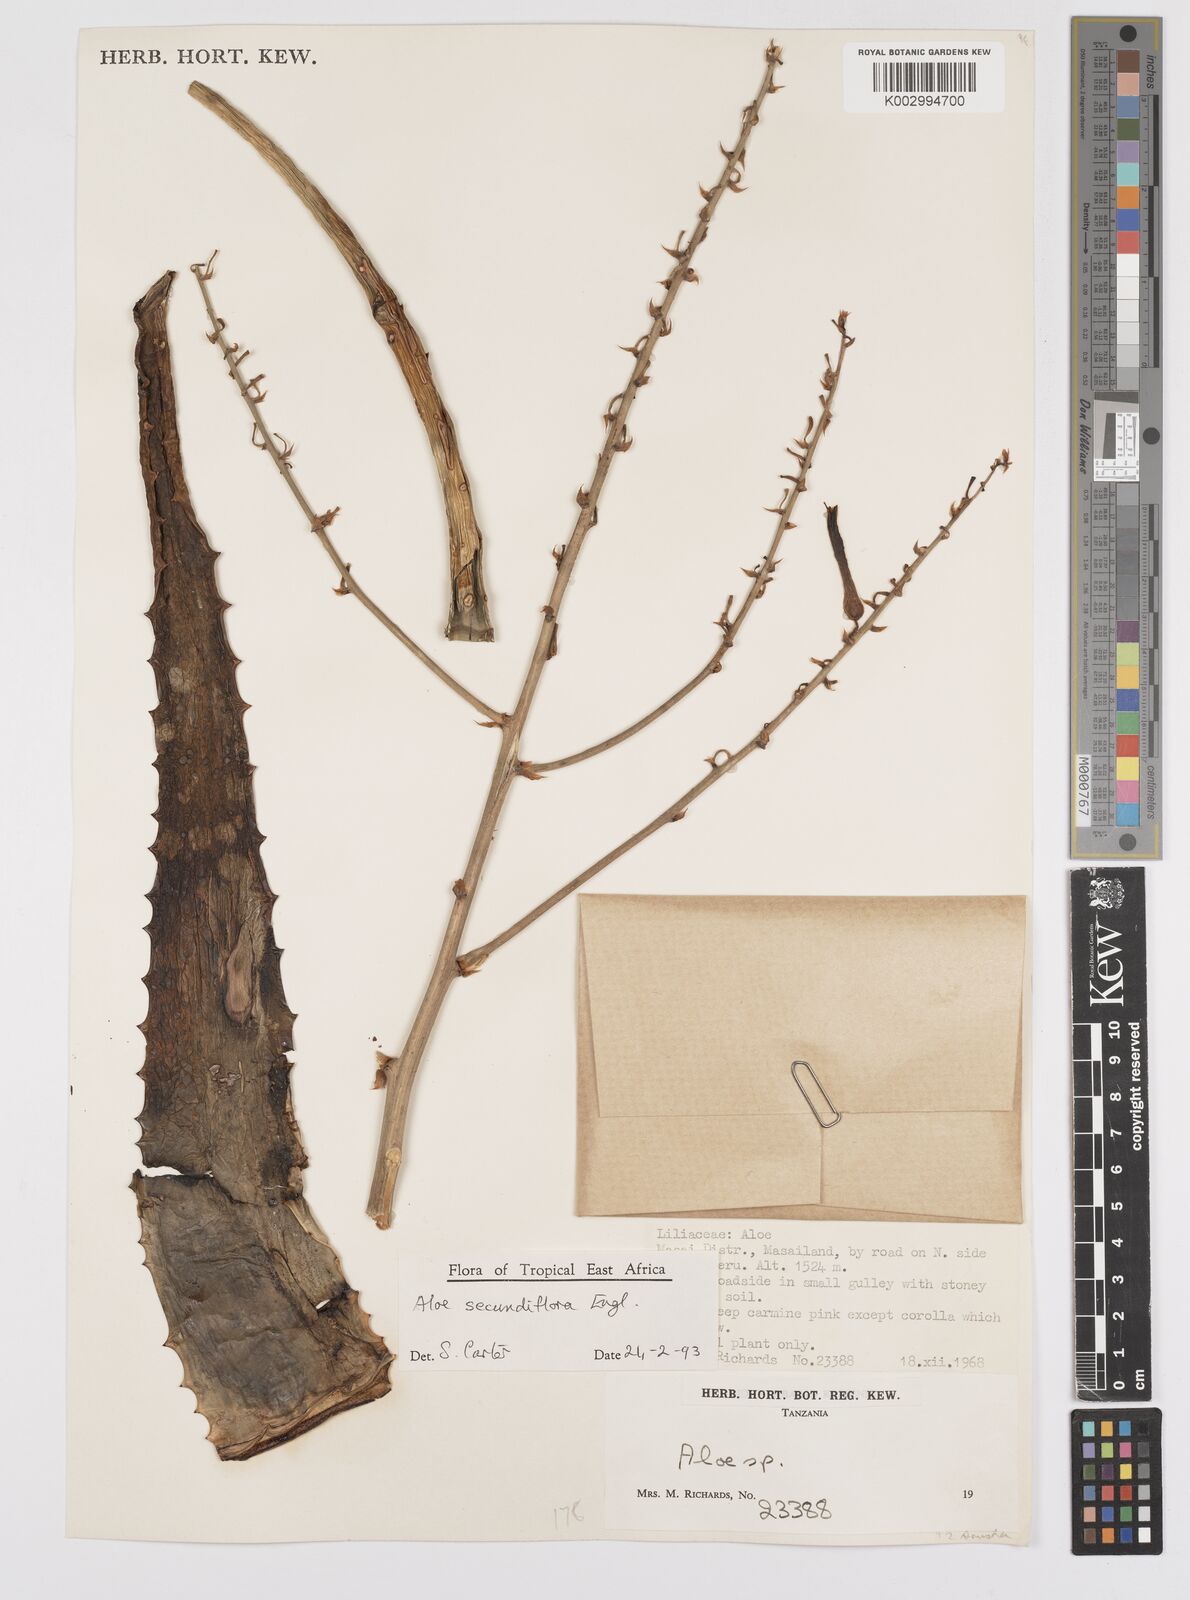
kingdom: Plantae
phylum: Tracheophyta
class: Liliopsida
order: Asparagales
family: Asphodelaceae
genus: Aloe
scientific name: Aloe secundiflora
